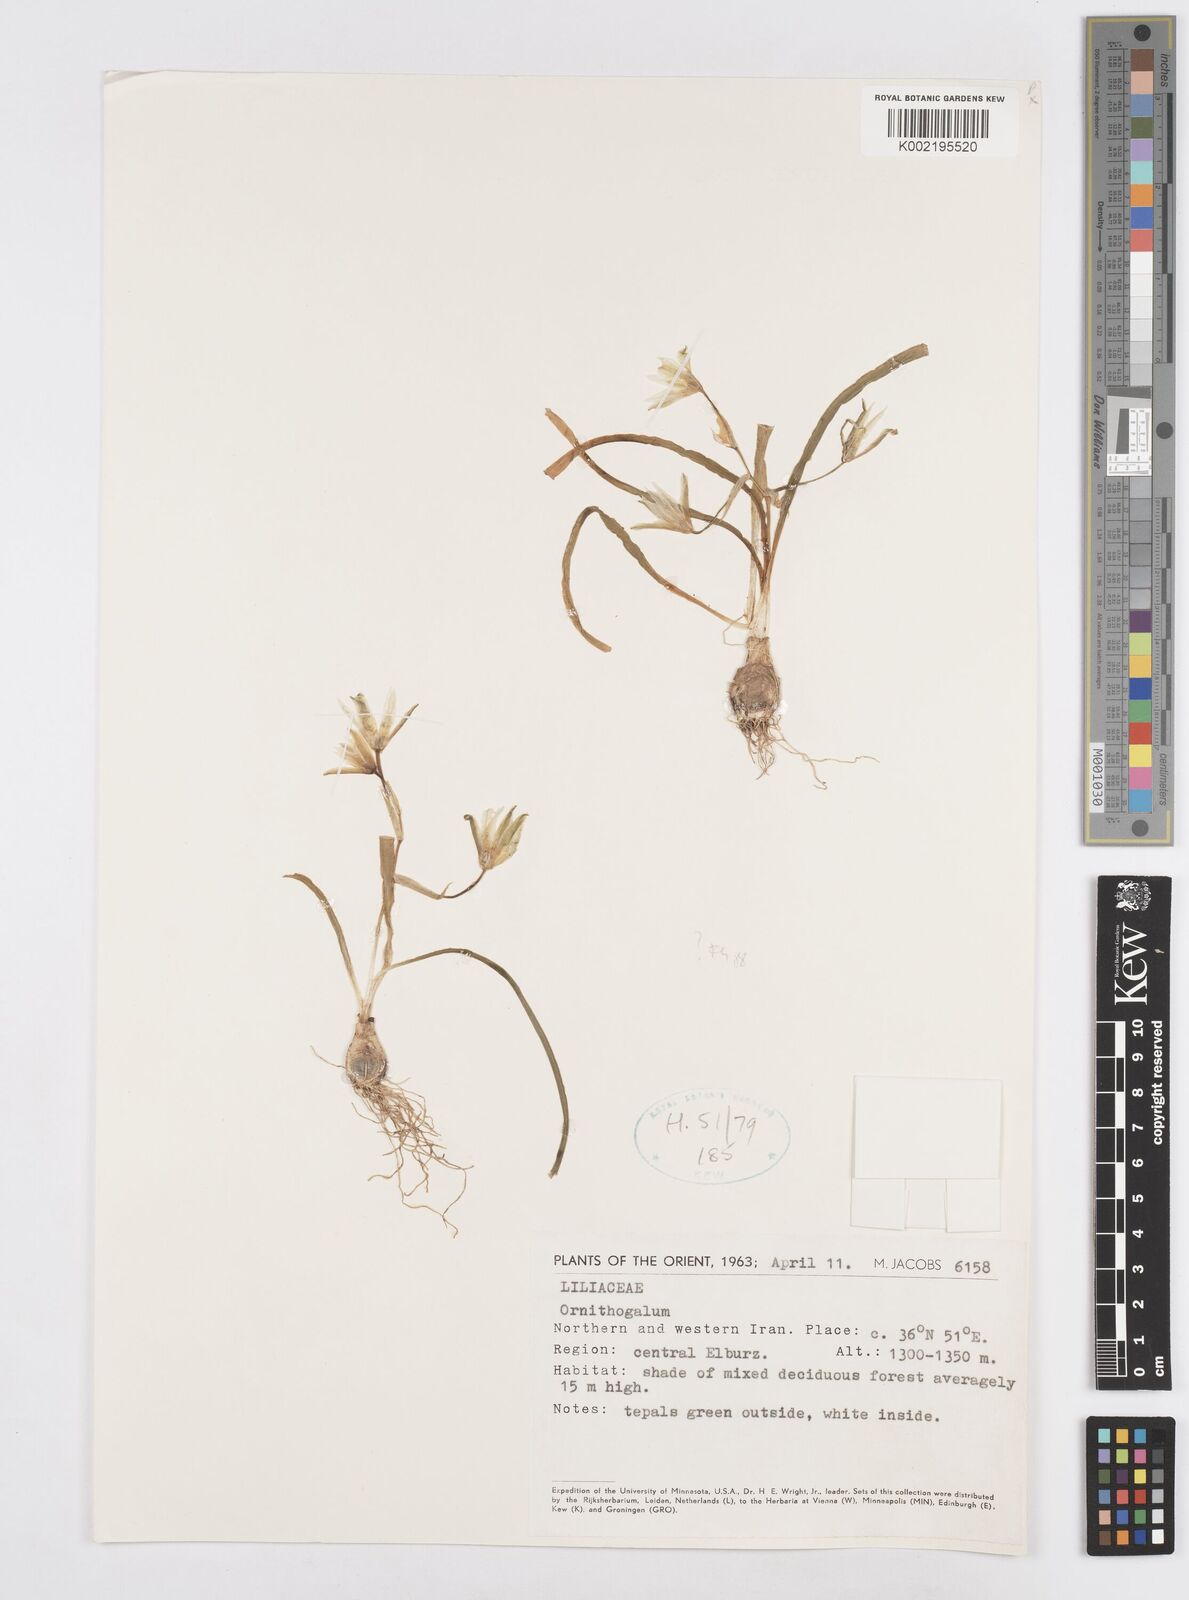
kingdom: Plantae
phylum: Tracheophyta
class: Liliopsida
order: Asparagales
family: Asparagaceae
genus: Ornithogalum
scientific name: Ornithogalum
